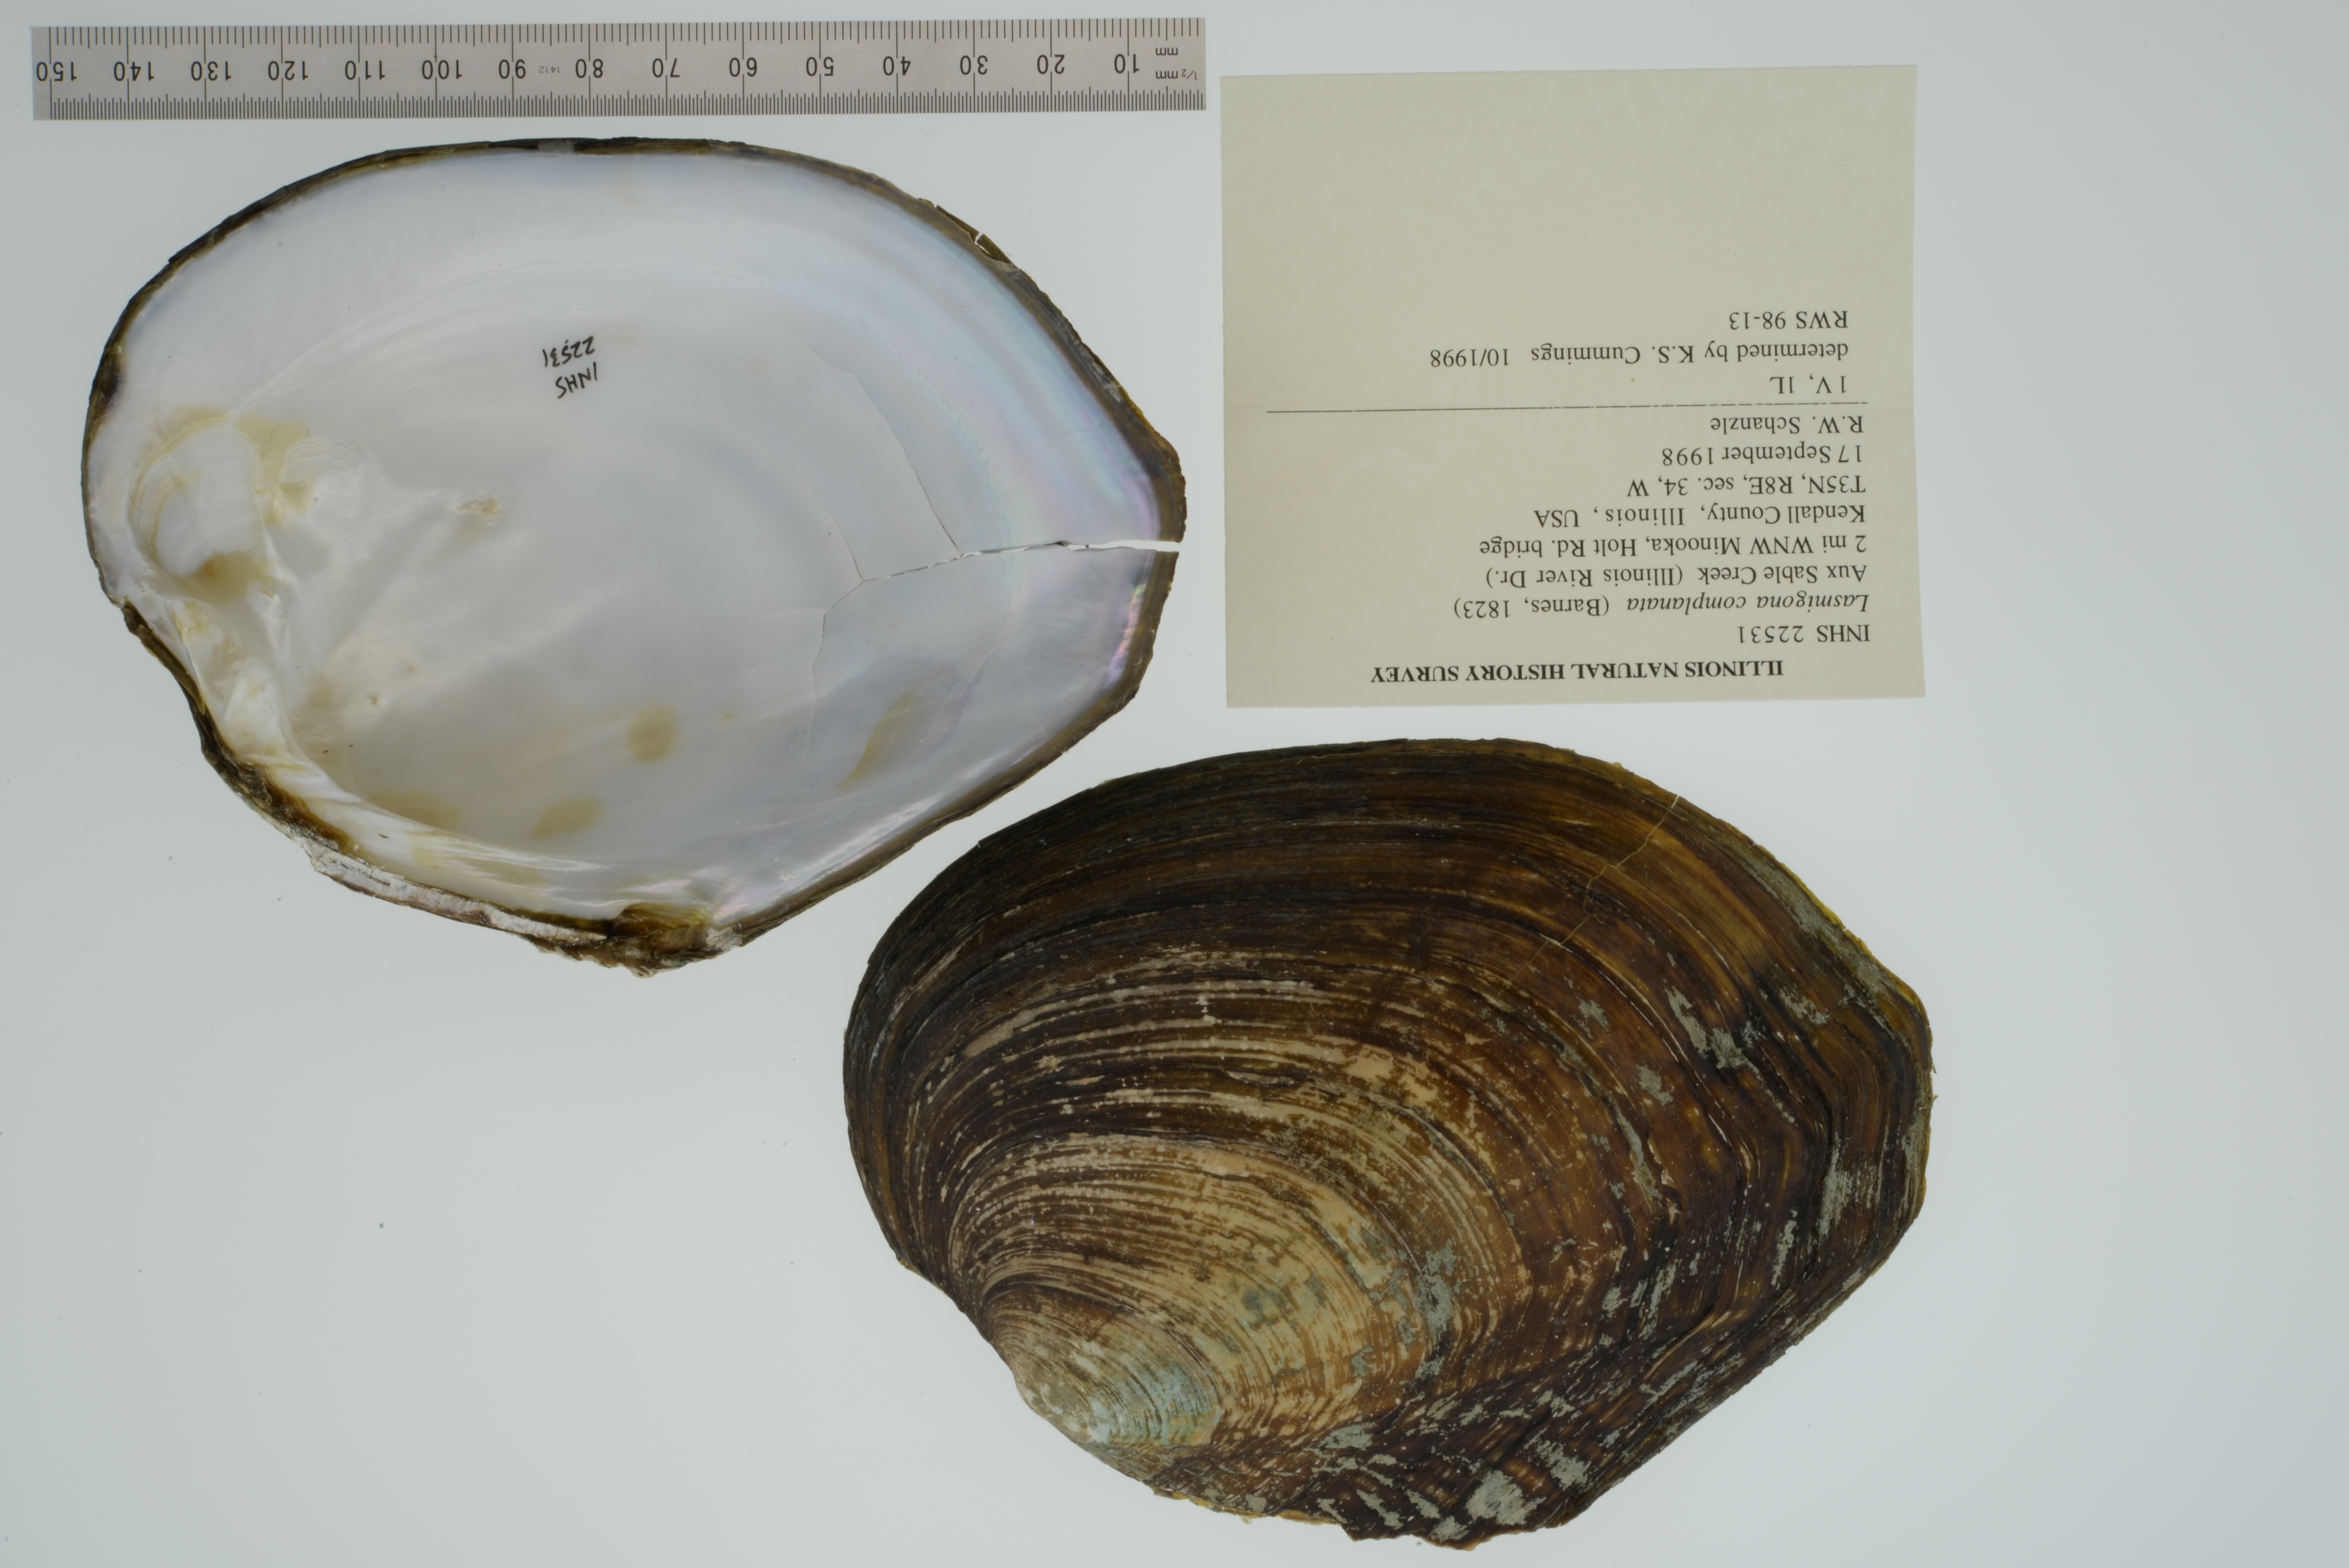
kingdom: Animalia
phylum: Mollusca
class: Bivalvia
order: Unionida
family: Unionidae
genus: Lasmigona
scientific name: Lasmigona complanata
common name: White heelsplitter
